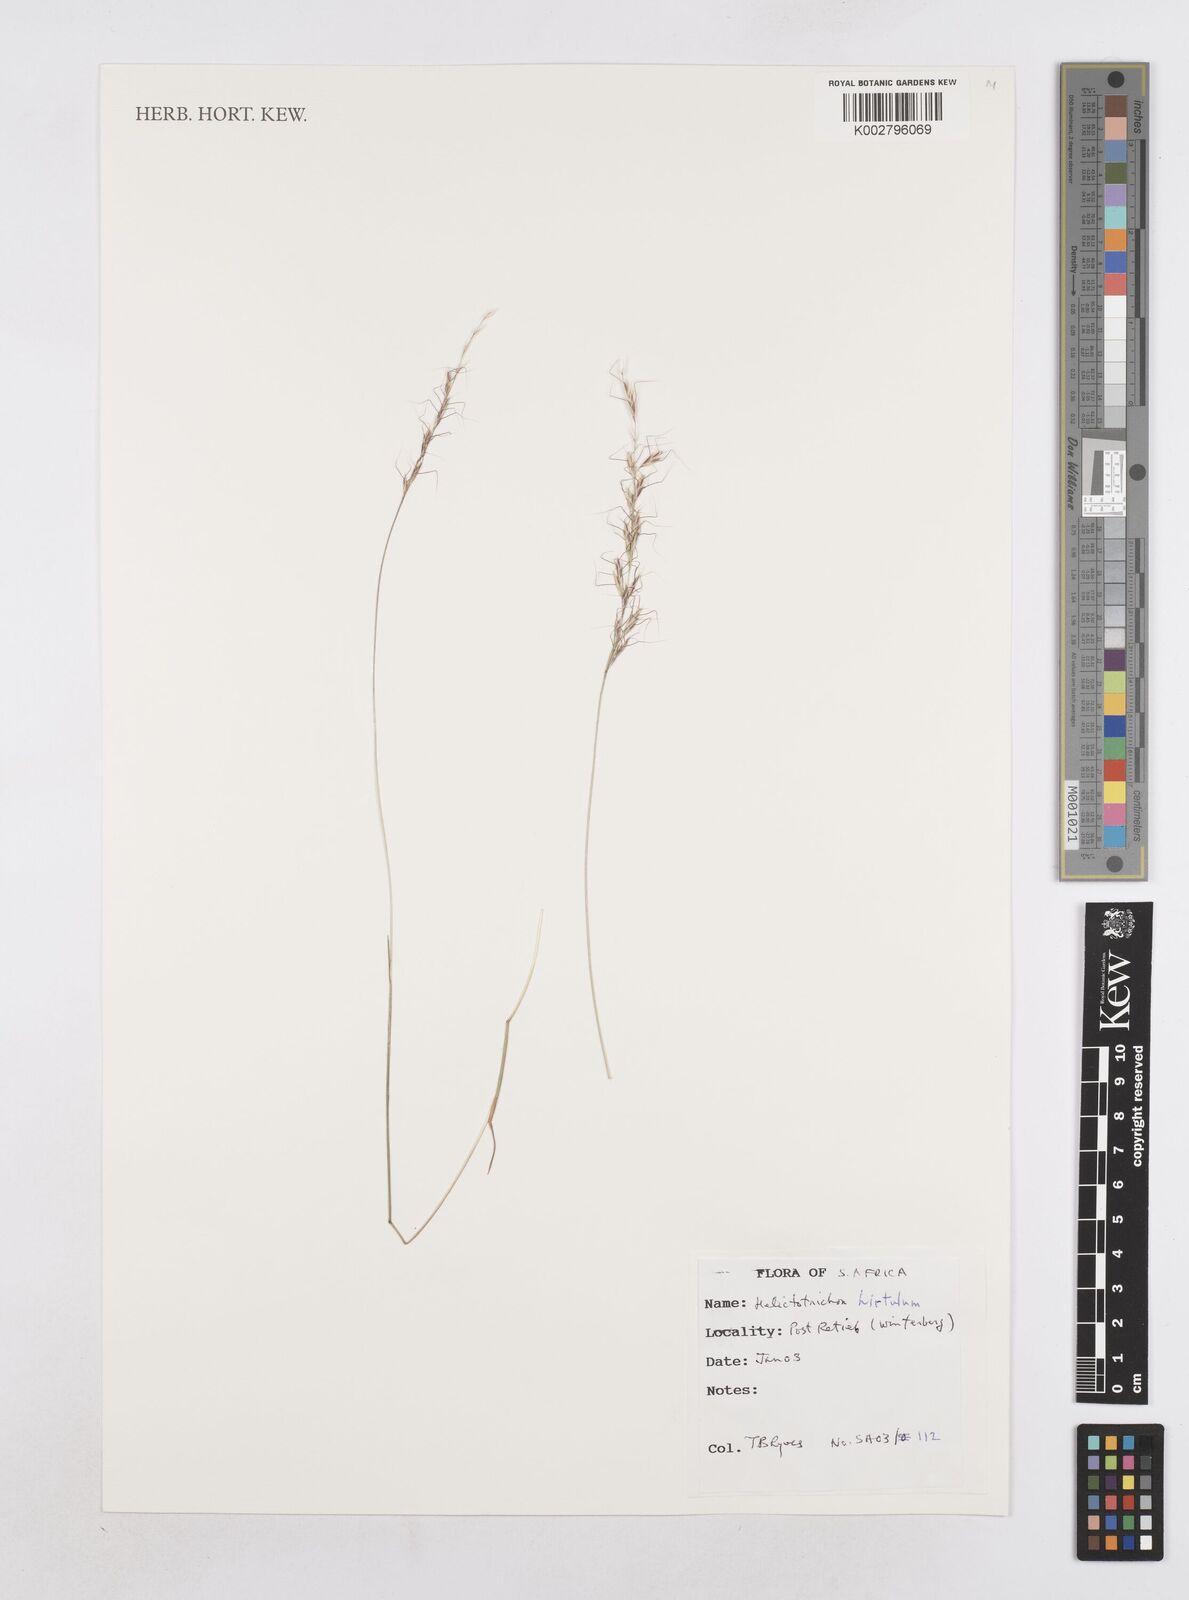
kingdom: Plantae
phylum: Tracheophyta
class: Liliopsida
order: Poales
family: Poaceae
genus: Trisetopsis
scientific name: Trisetopsis hirtula
